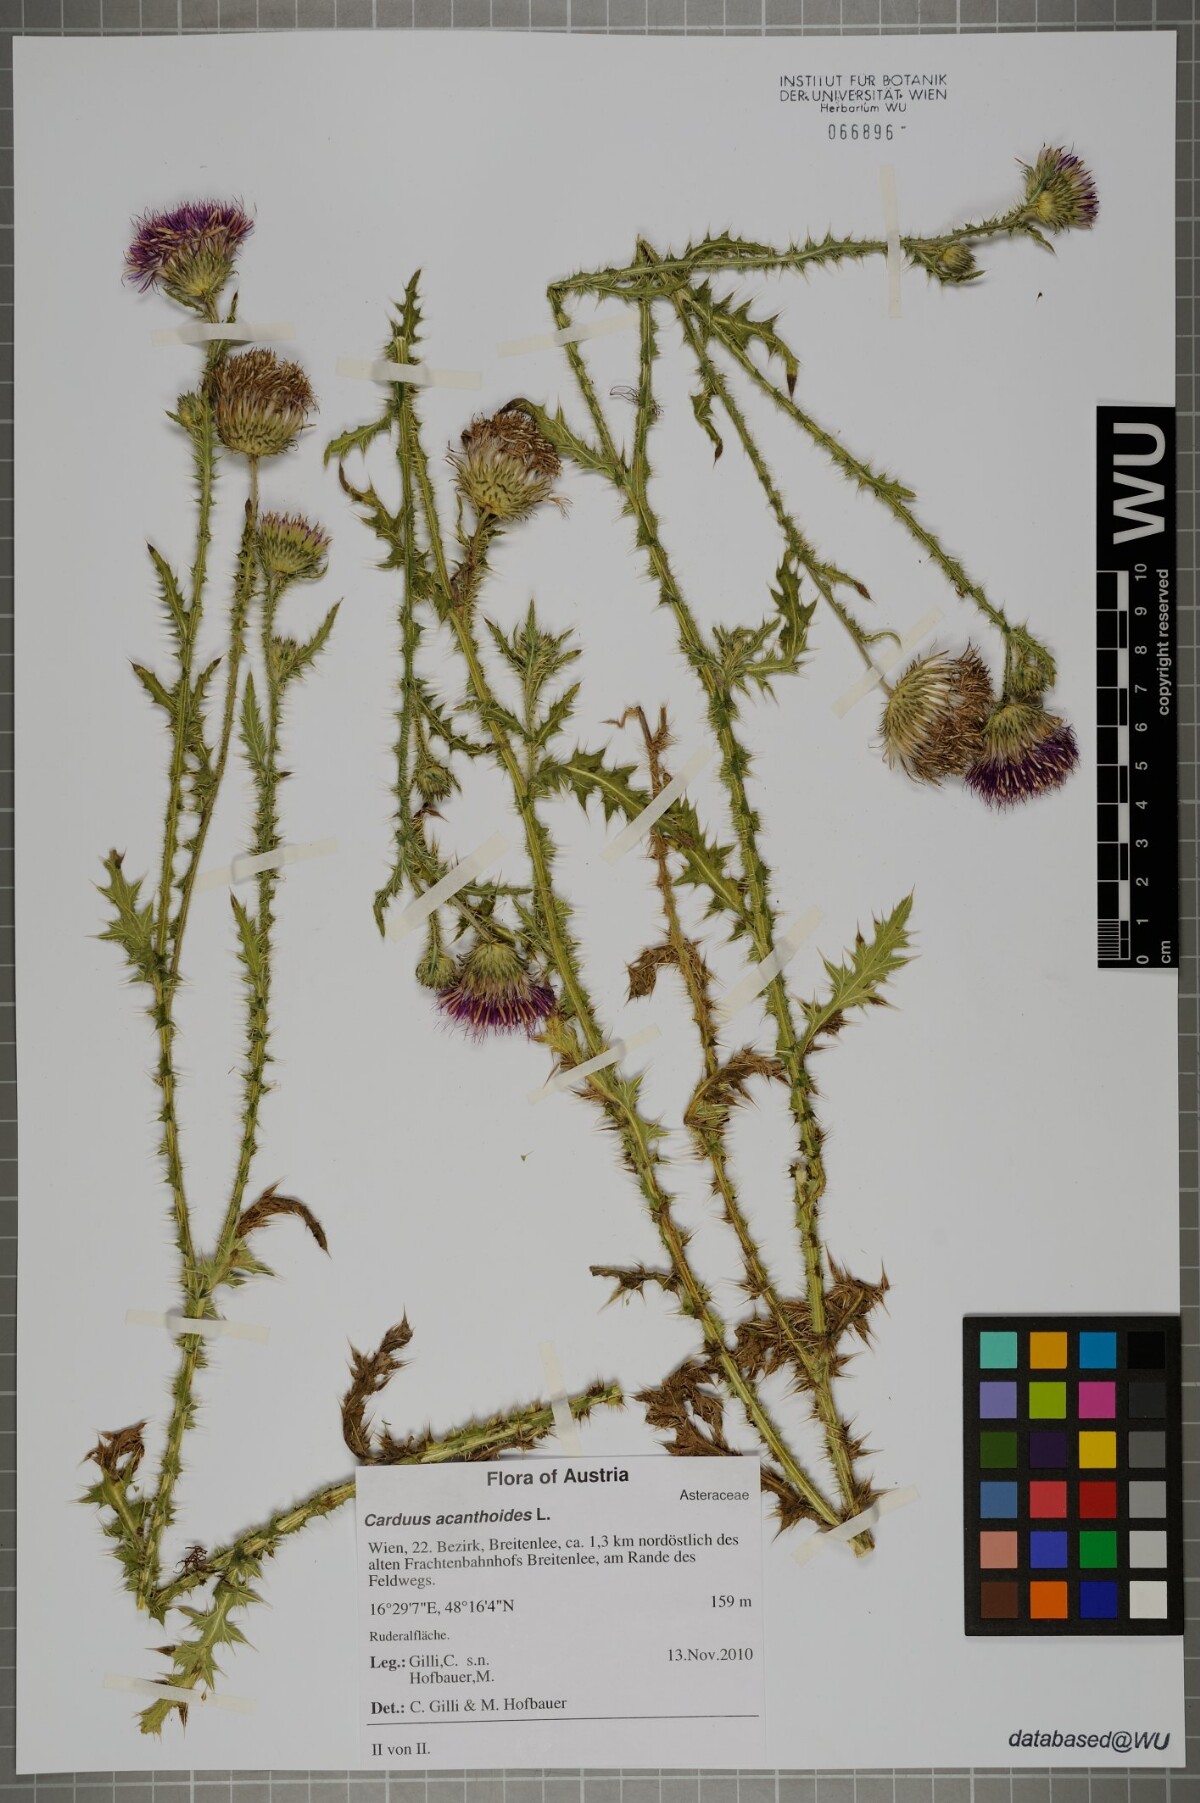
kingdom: Plantae
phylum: Tracheophyta
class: Magnoliopsida
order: Asterales
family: Asteraceae
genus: Carduus
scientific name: Carduus acanthoides
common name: Plumeless thistle
